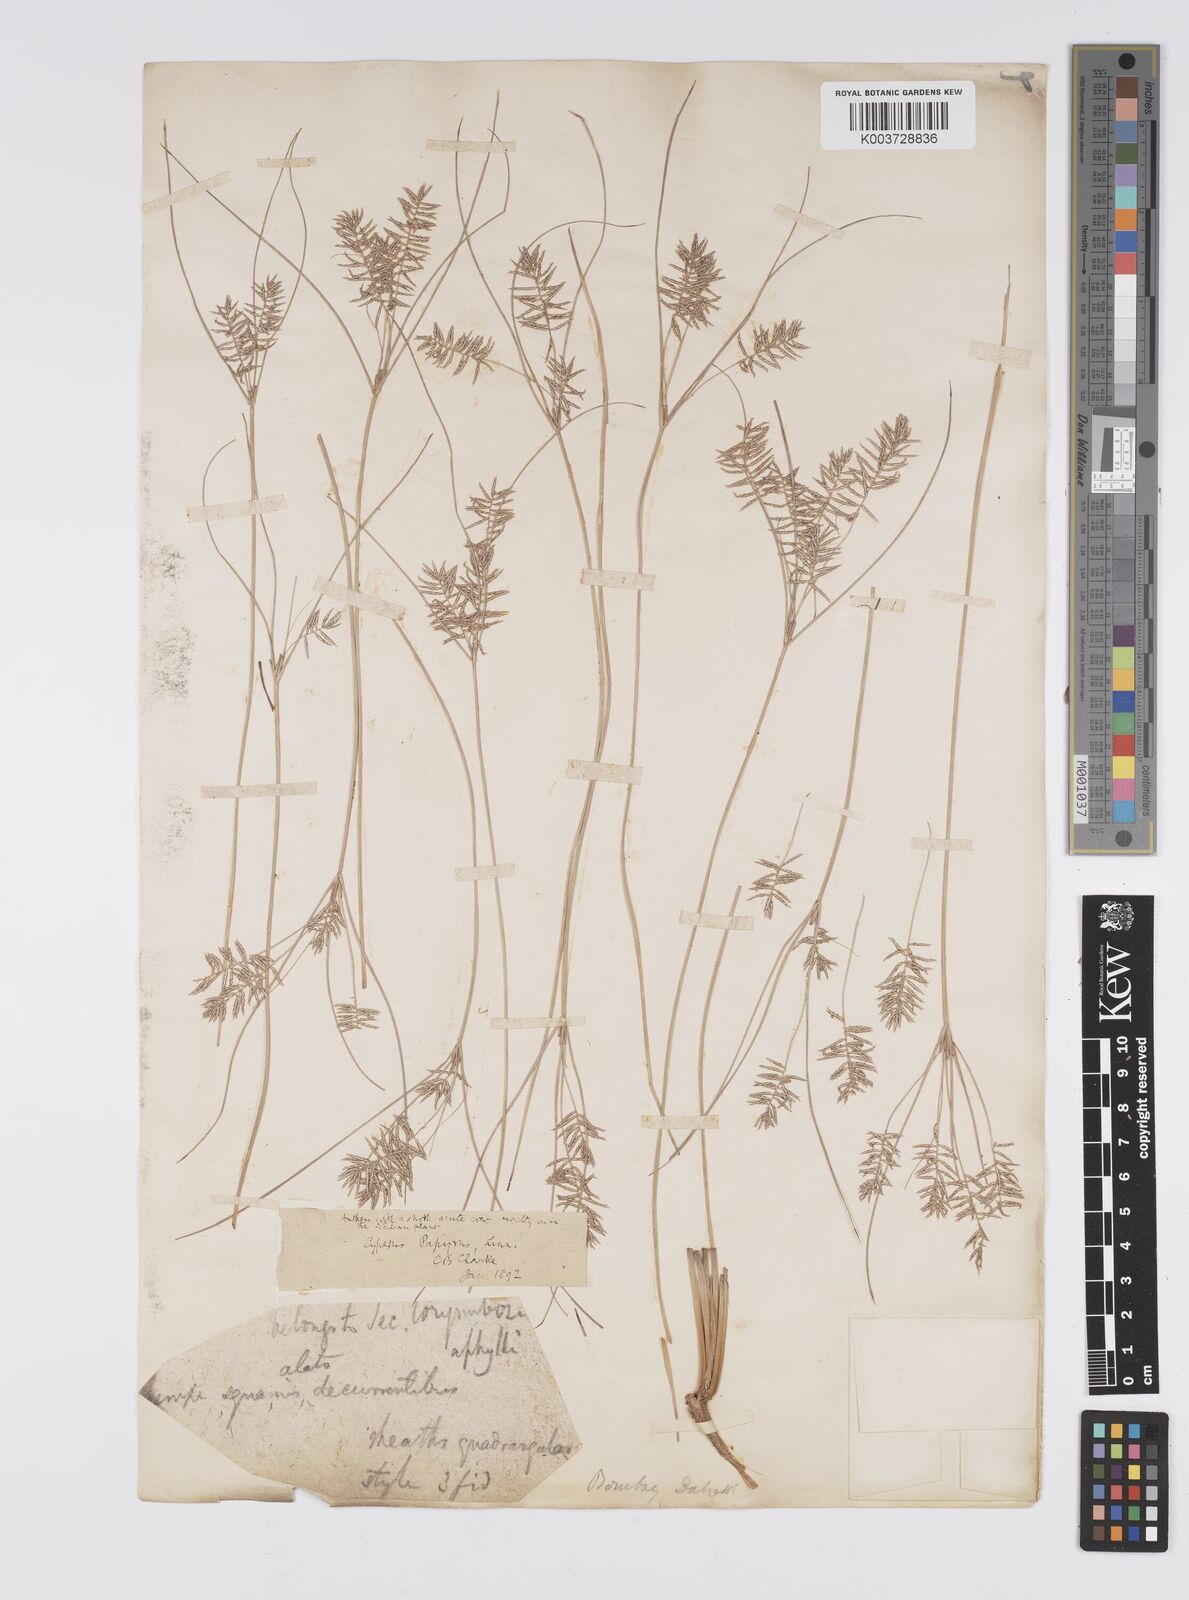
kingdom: Plantae
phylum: Tracheophyta
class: Liliopsida
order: Poales
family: Cyperaceae
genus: Cyperus
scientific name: Cyperus papyrus
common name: Papyrus
